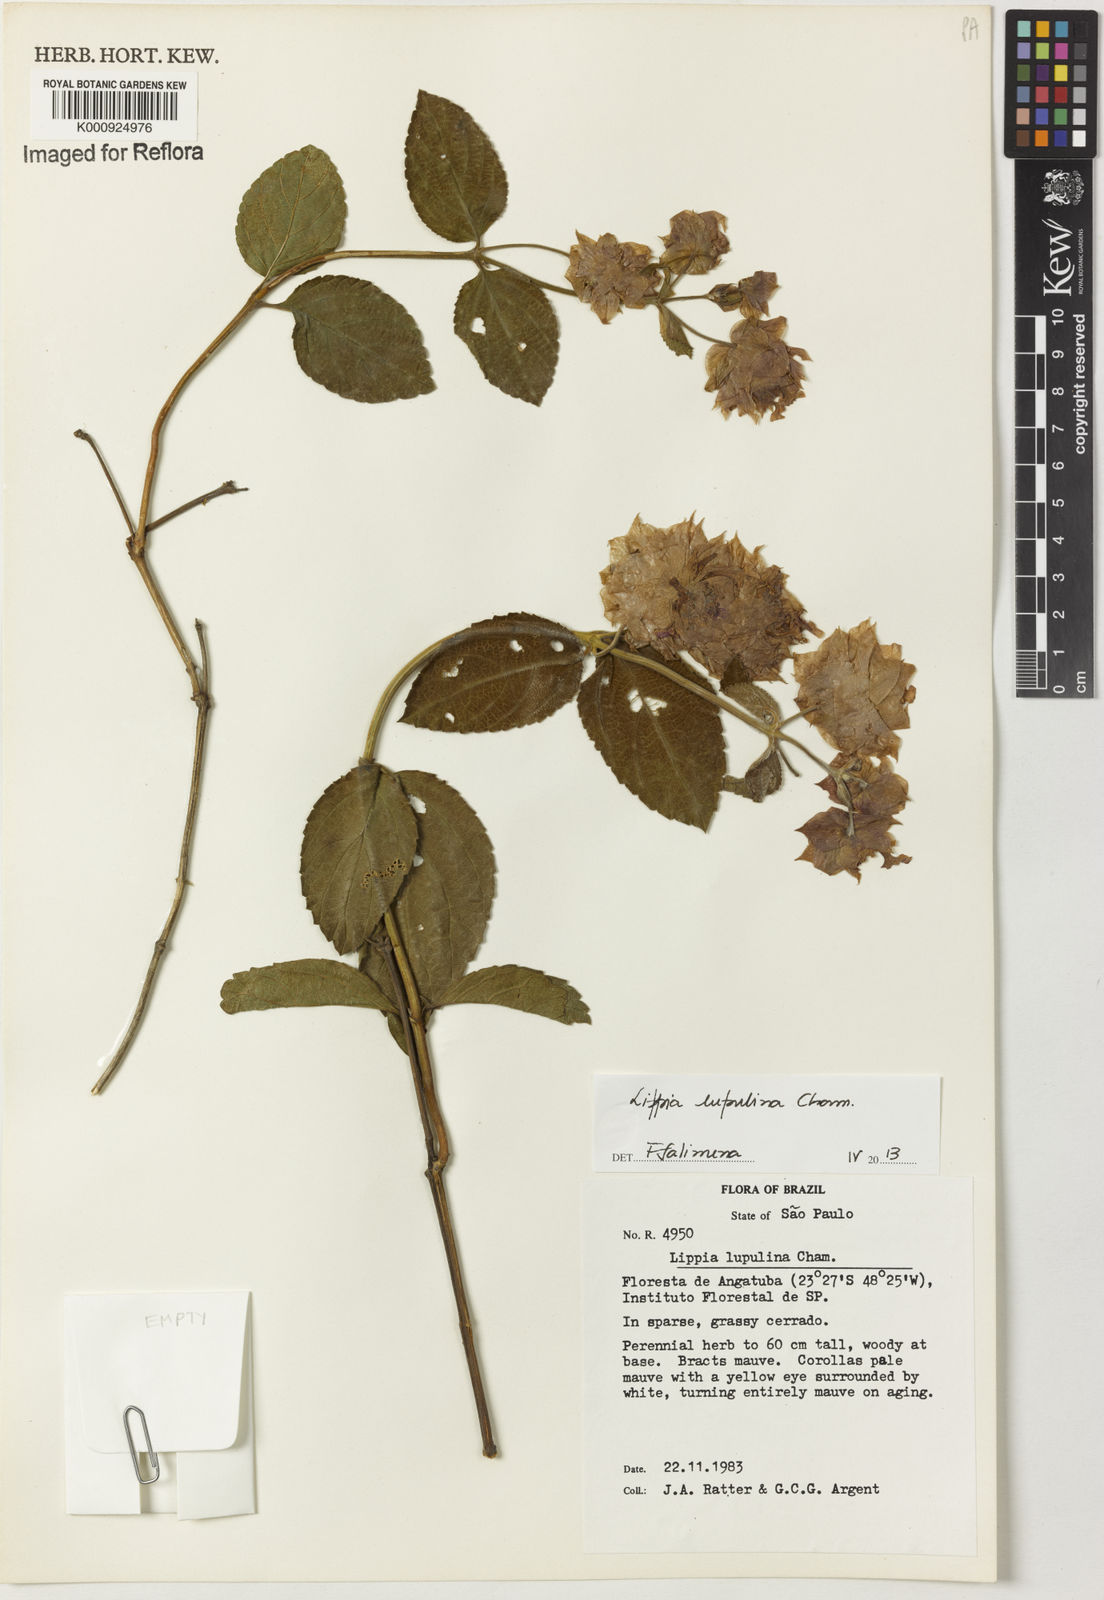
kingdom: Plantae
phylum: Tracheophyta
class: Magnoliopsida
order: Lamiales
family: Verbenaceae
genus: Lippia
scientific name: Lippia lupulina
